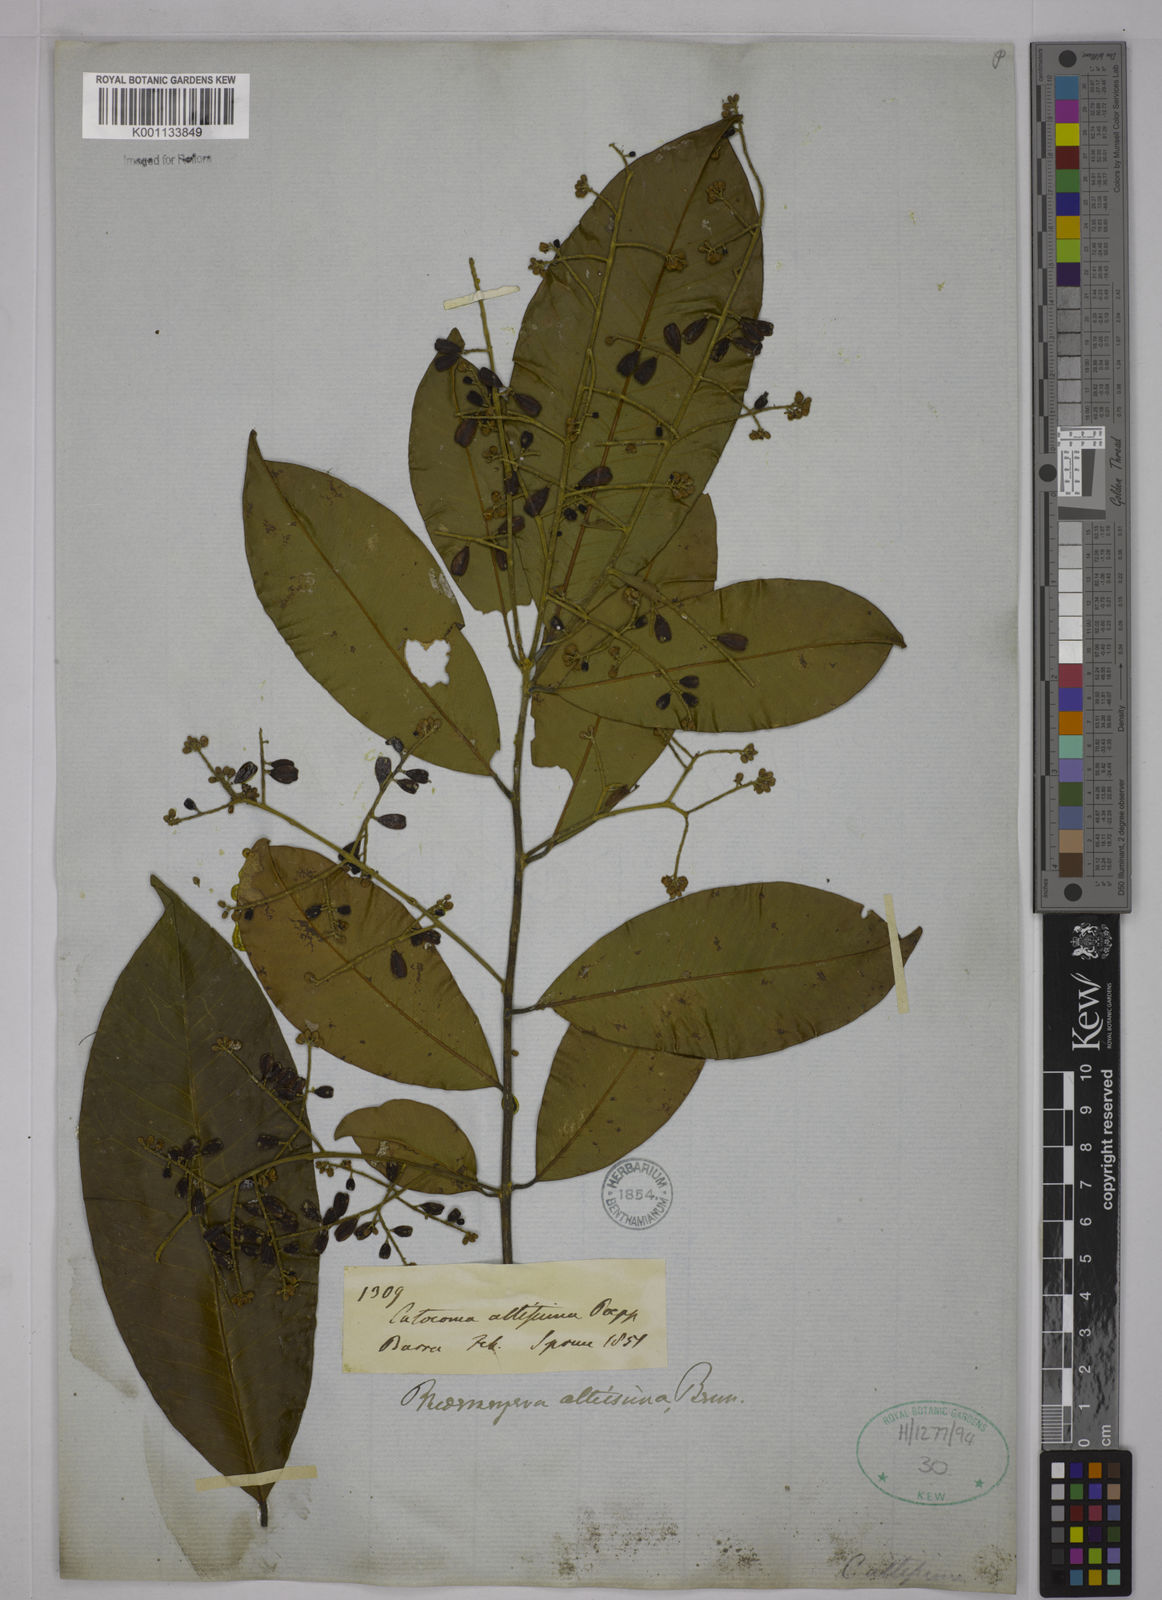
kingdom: Plantae
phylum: Tracheophyta
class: Magnoliopsida
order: Fabales
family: Polygalaceae
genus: Bredemeyera
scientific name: Bredemeyera divaricata
